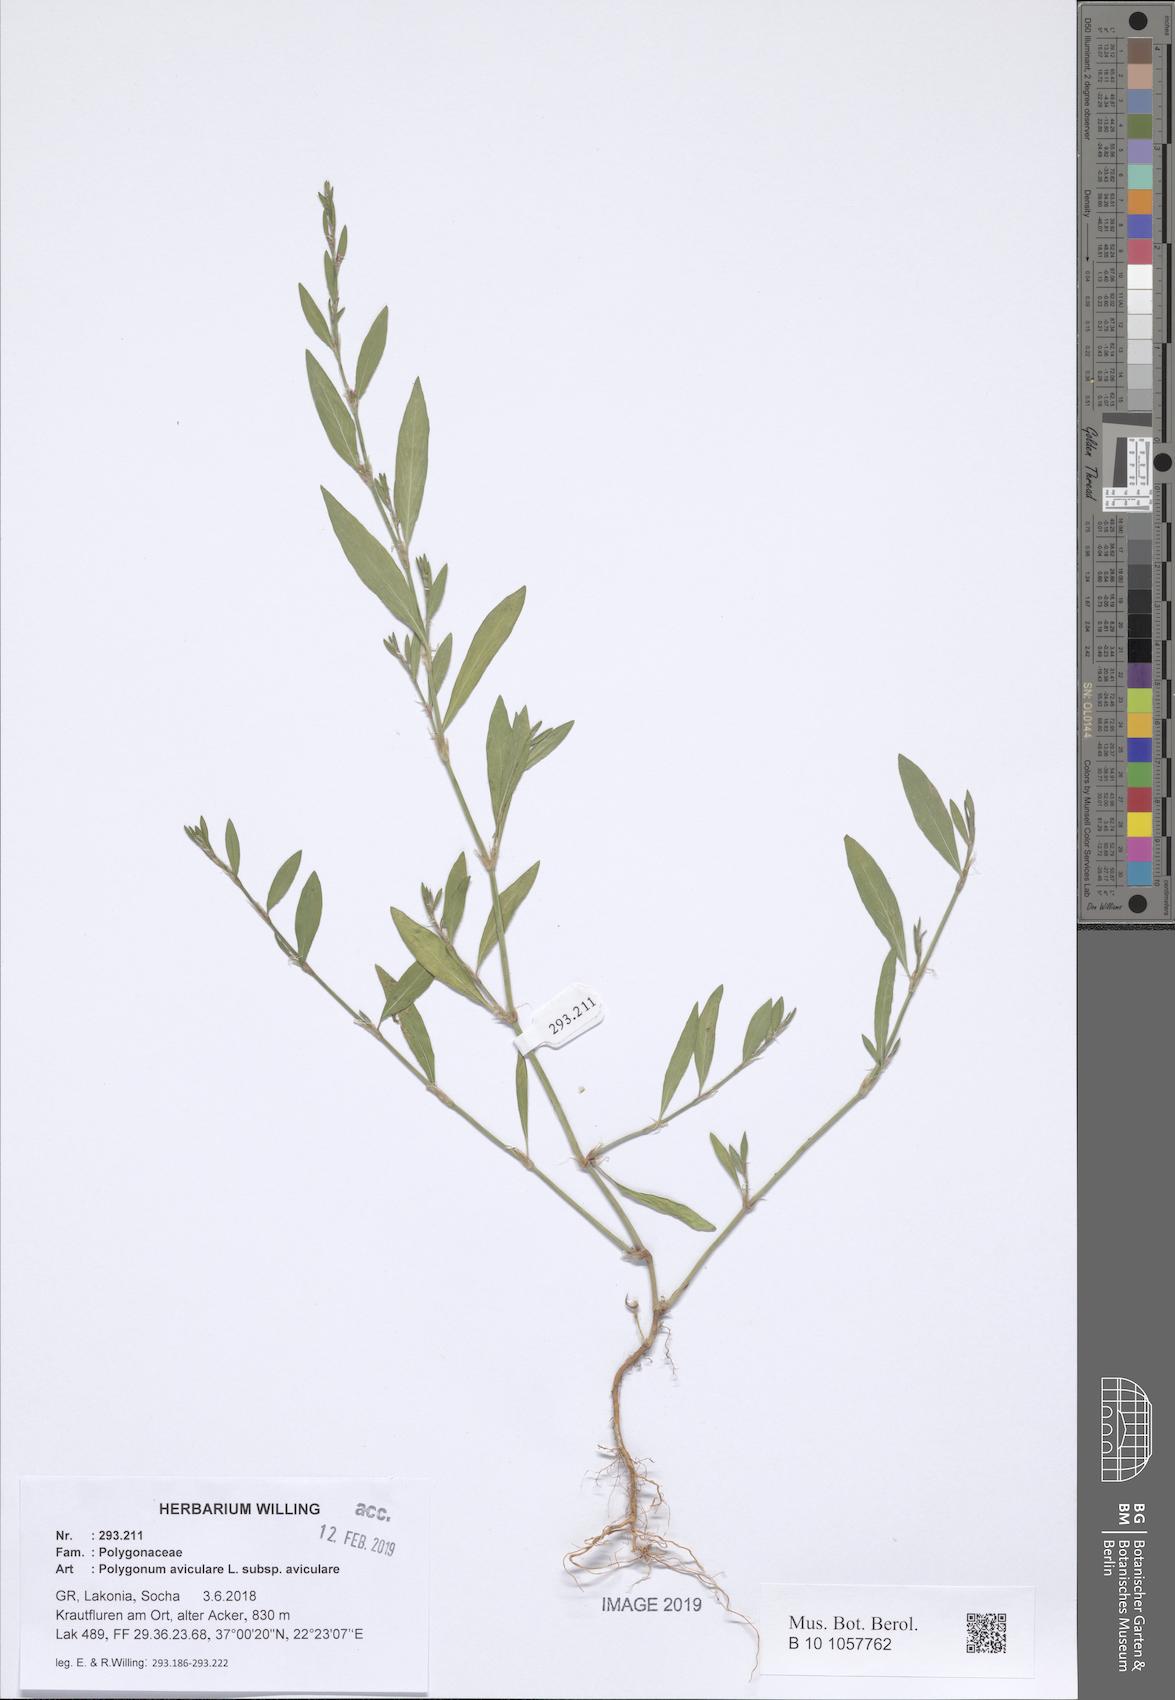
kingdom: Plantae
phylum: Tracheophyta
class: Magnoliopsida
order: Caryophyllales
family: Polygonaceae
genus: Polygonum
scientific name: Polygonum aviculare
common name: Prostrate knotweed
